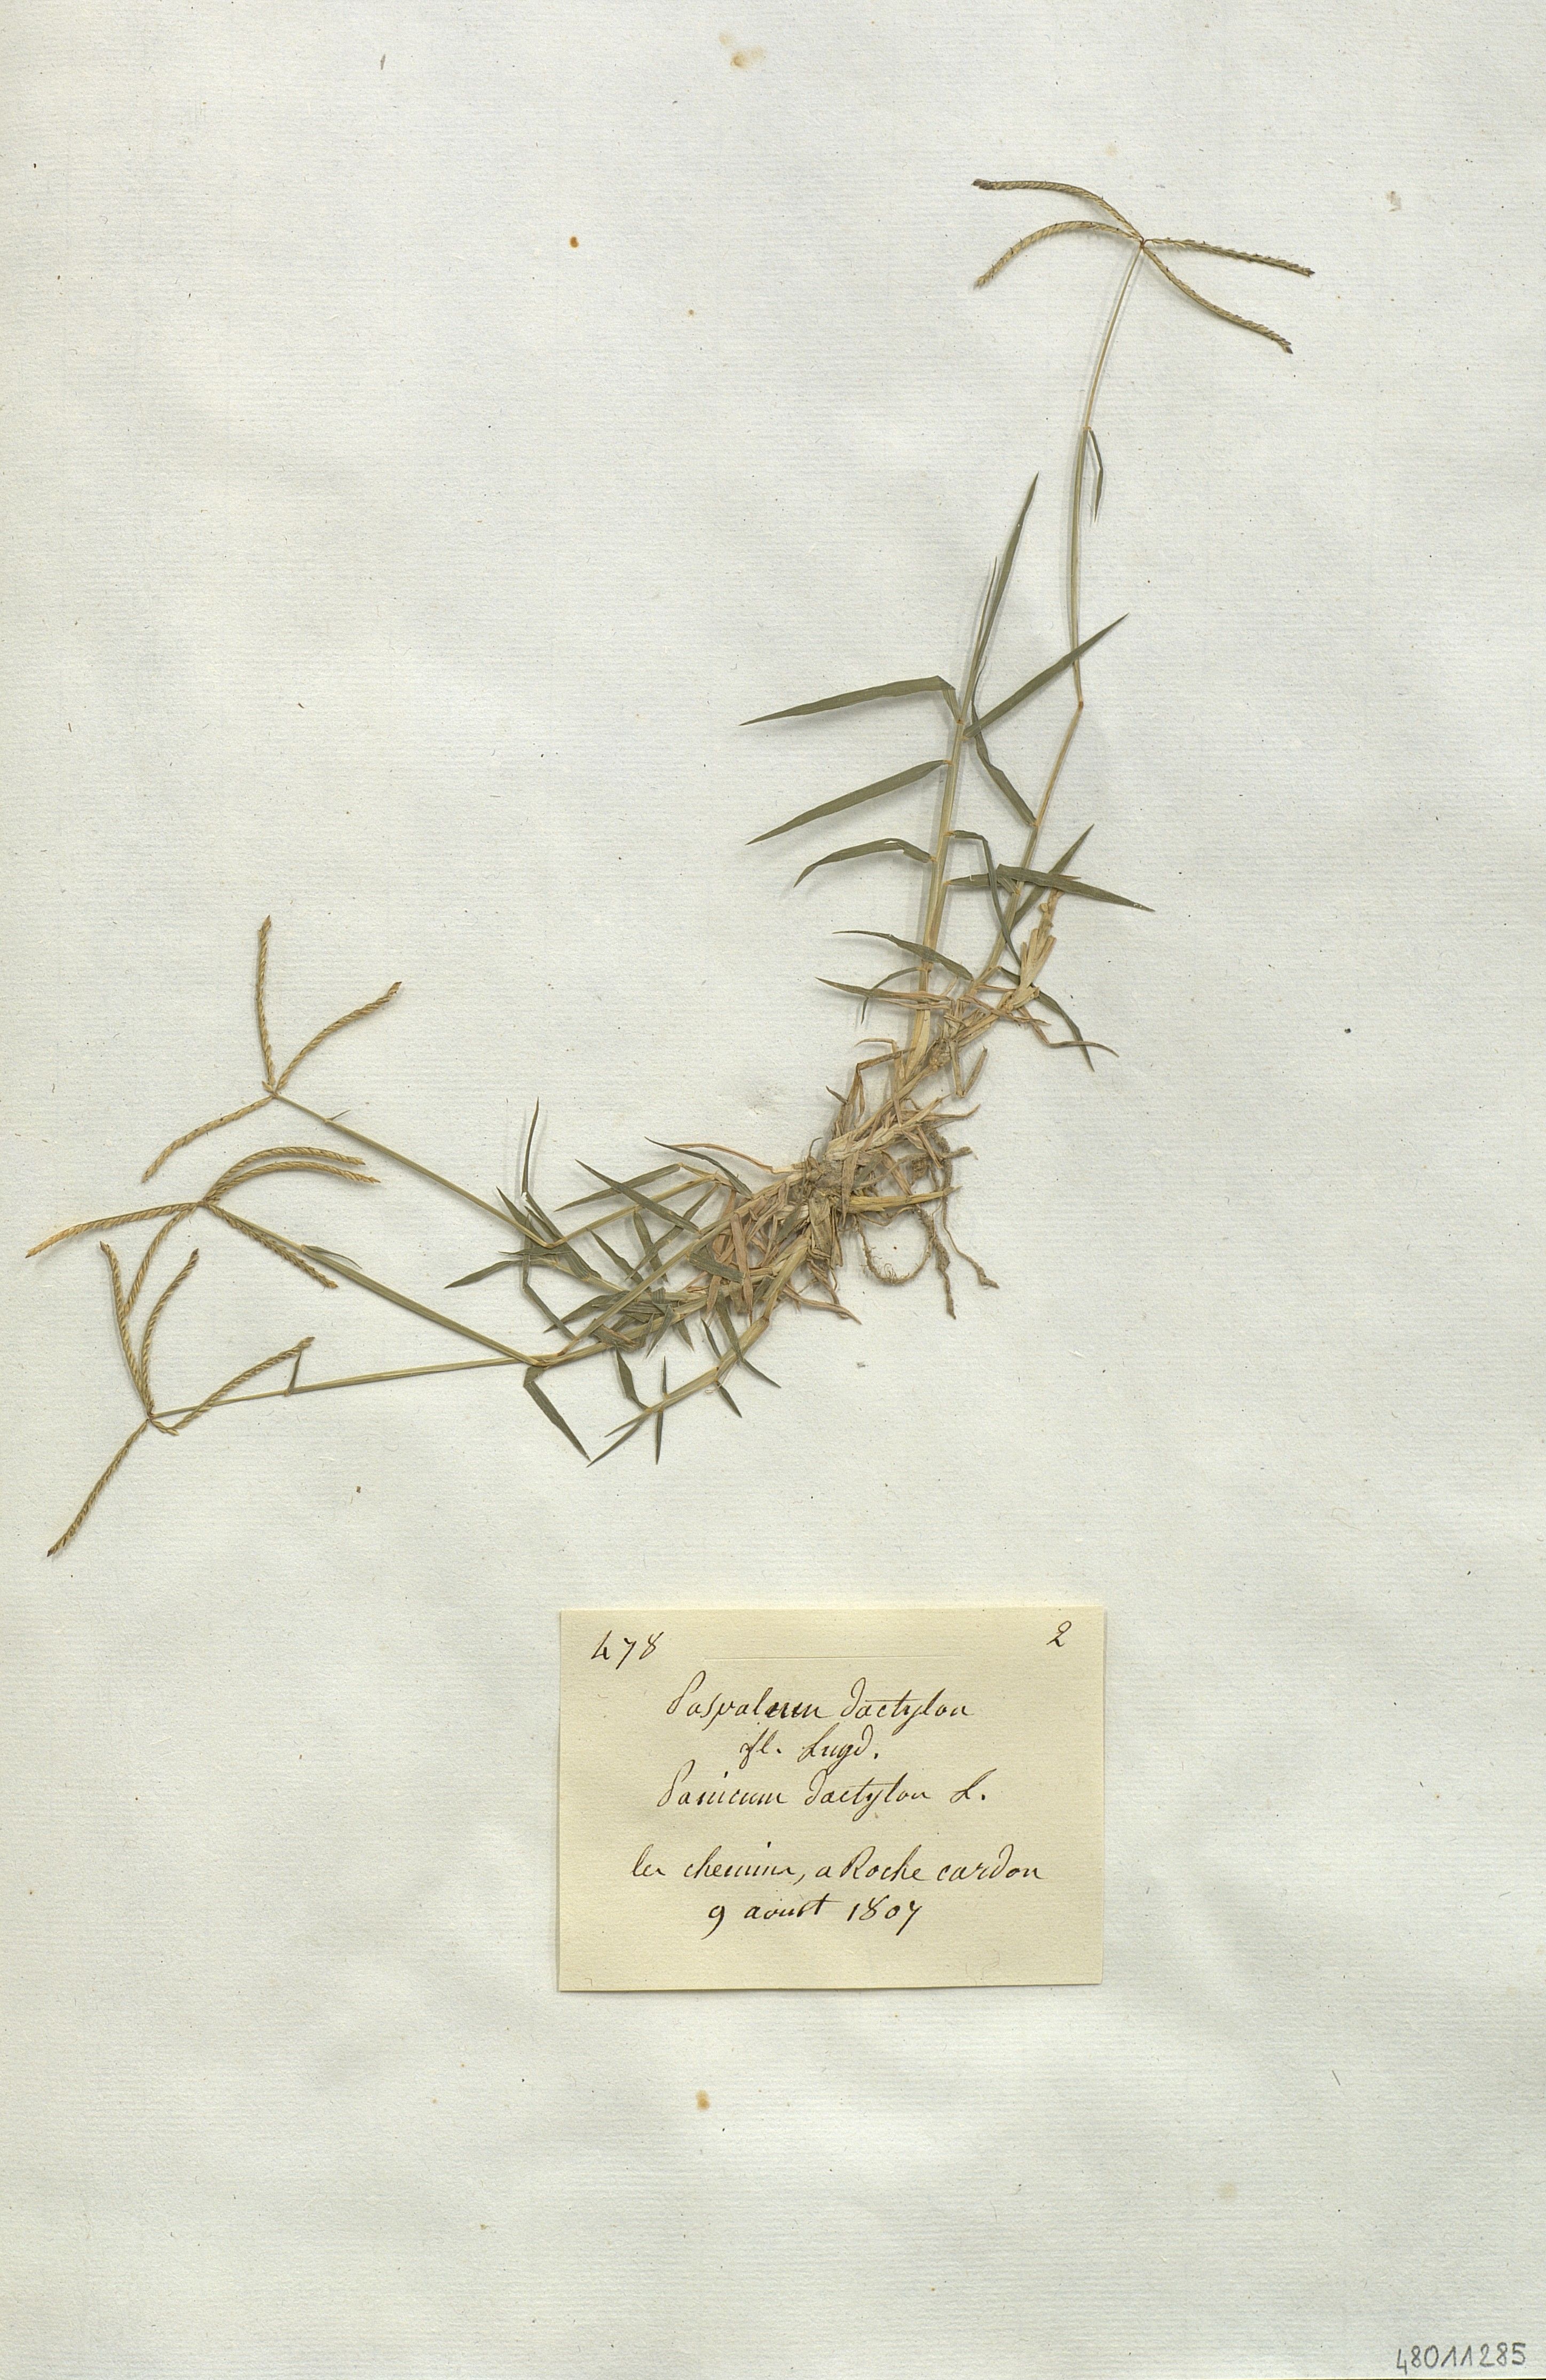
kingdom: Plantae
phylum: Tracheophyta
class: Liliopsida
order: Poales
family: Poaceae
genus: Paspalum
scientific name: Paspalum dactylon
